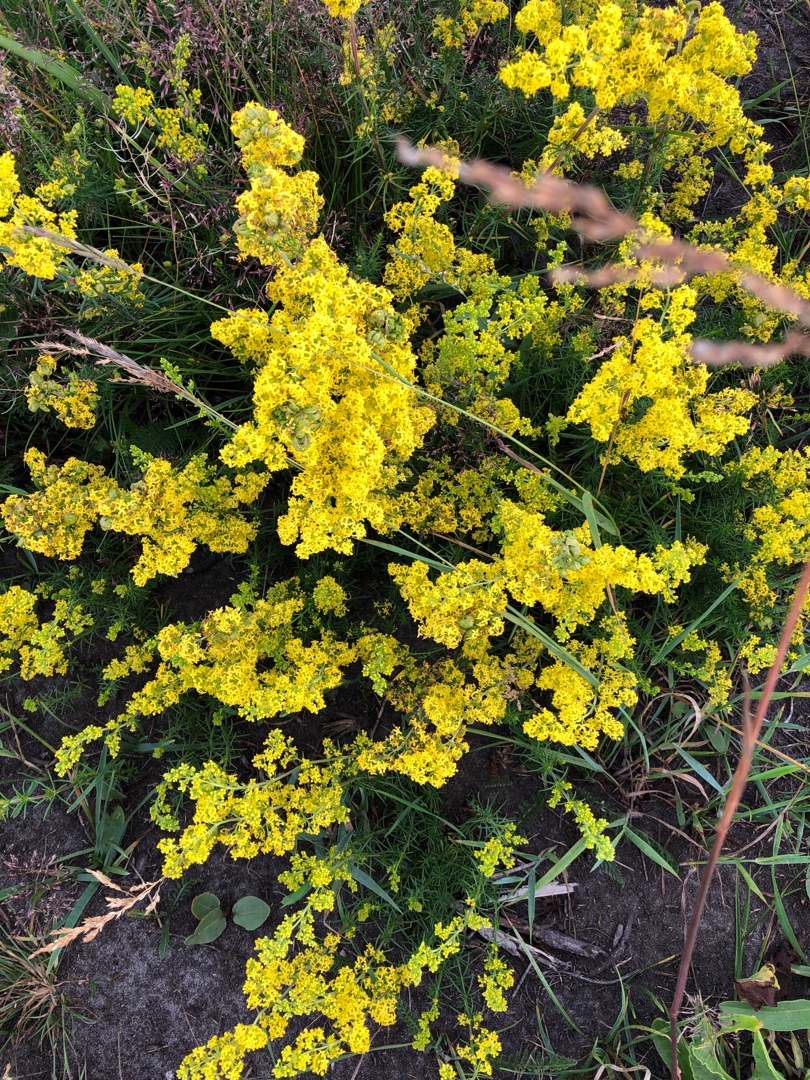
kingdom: Plantae
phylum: Tracheophyta
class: Magnoliopsida
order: Gentianales
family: Rubiaceae
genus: Galium
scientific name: Galium verum
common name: Gul snerre
